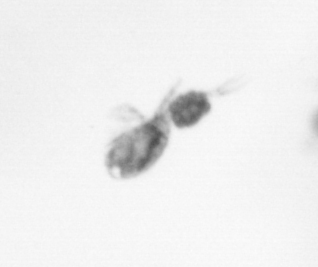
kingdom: Animalia
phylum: Arthropoda
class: Copepoda
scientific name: Copepoda
